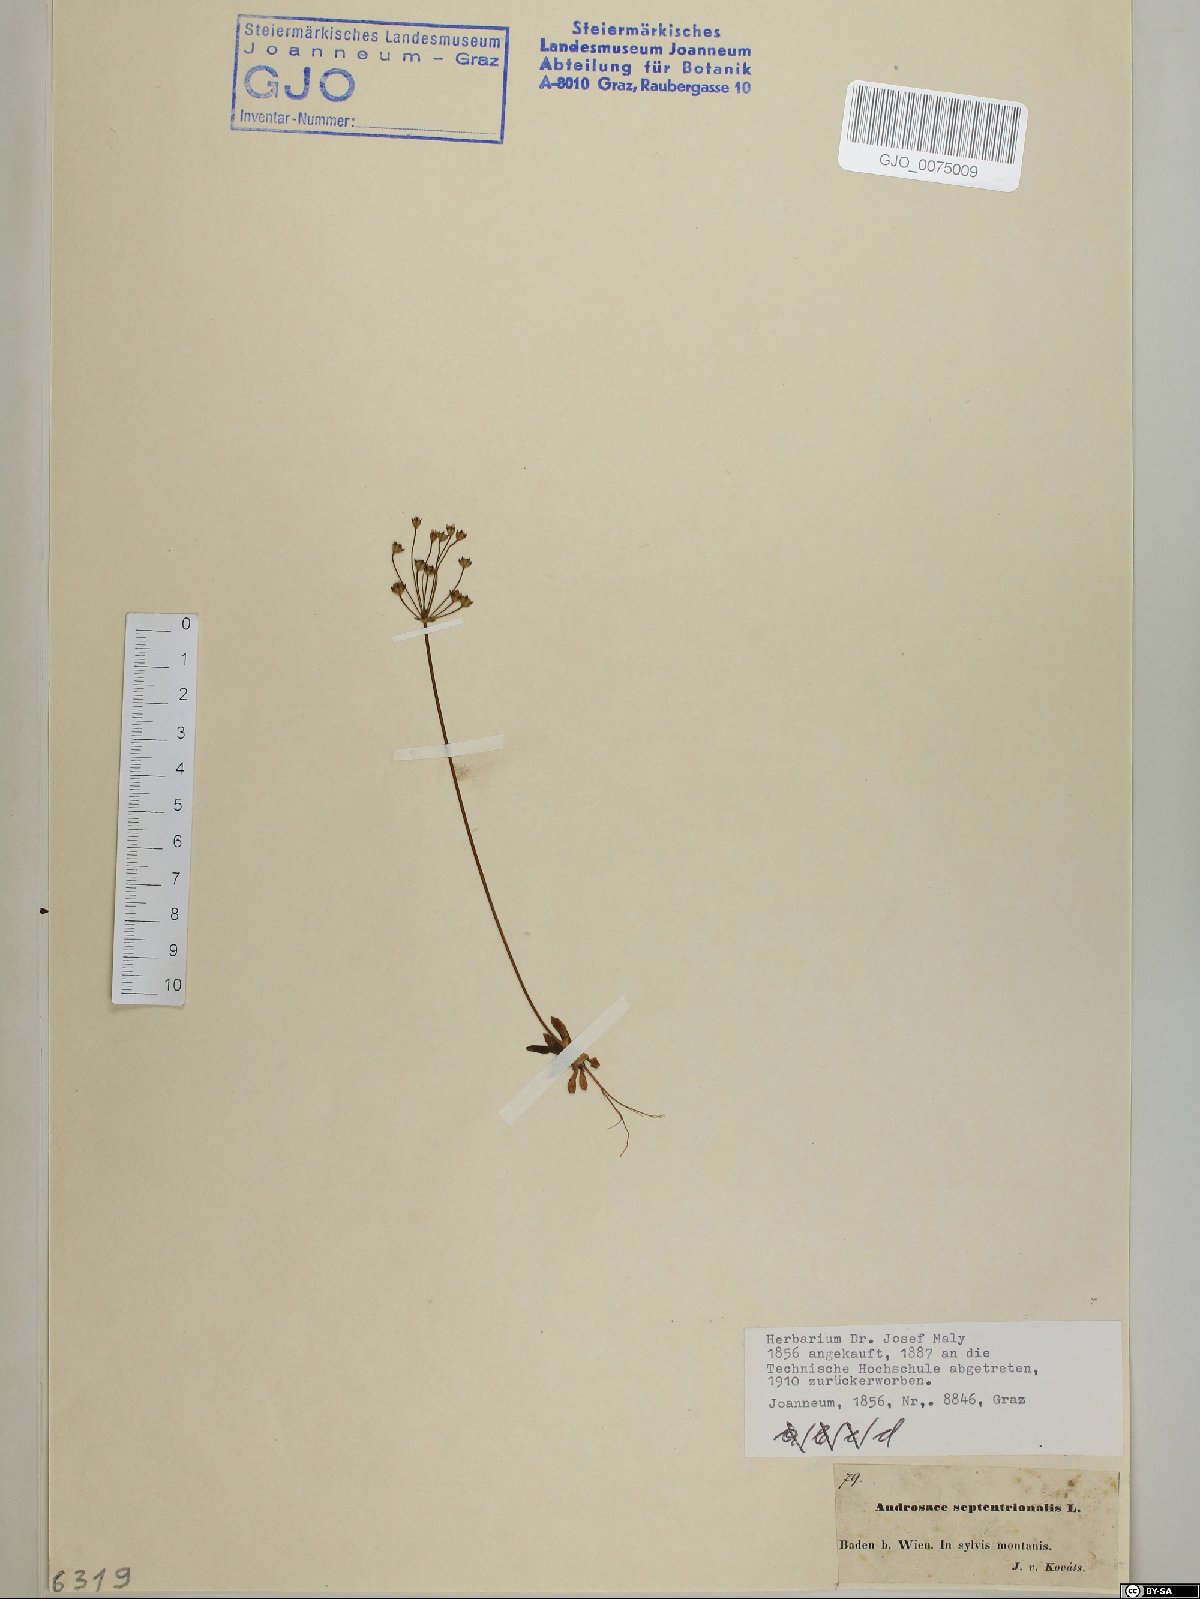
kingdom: Plantae
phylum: Tracheophyta
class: Magnoliopsida
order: Ericales
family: Primulaceae
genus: Androsace
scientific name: Androsace septentrionalis
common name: Hairy northern fairy-candelabra
